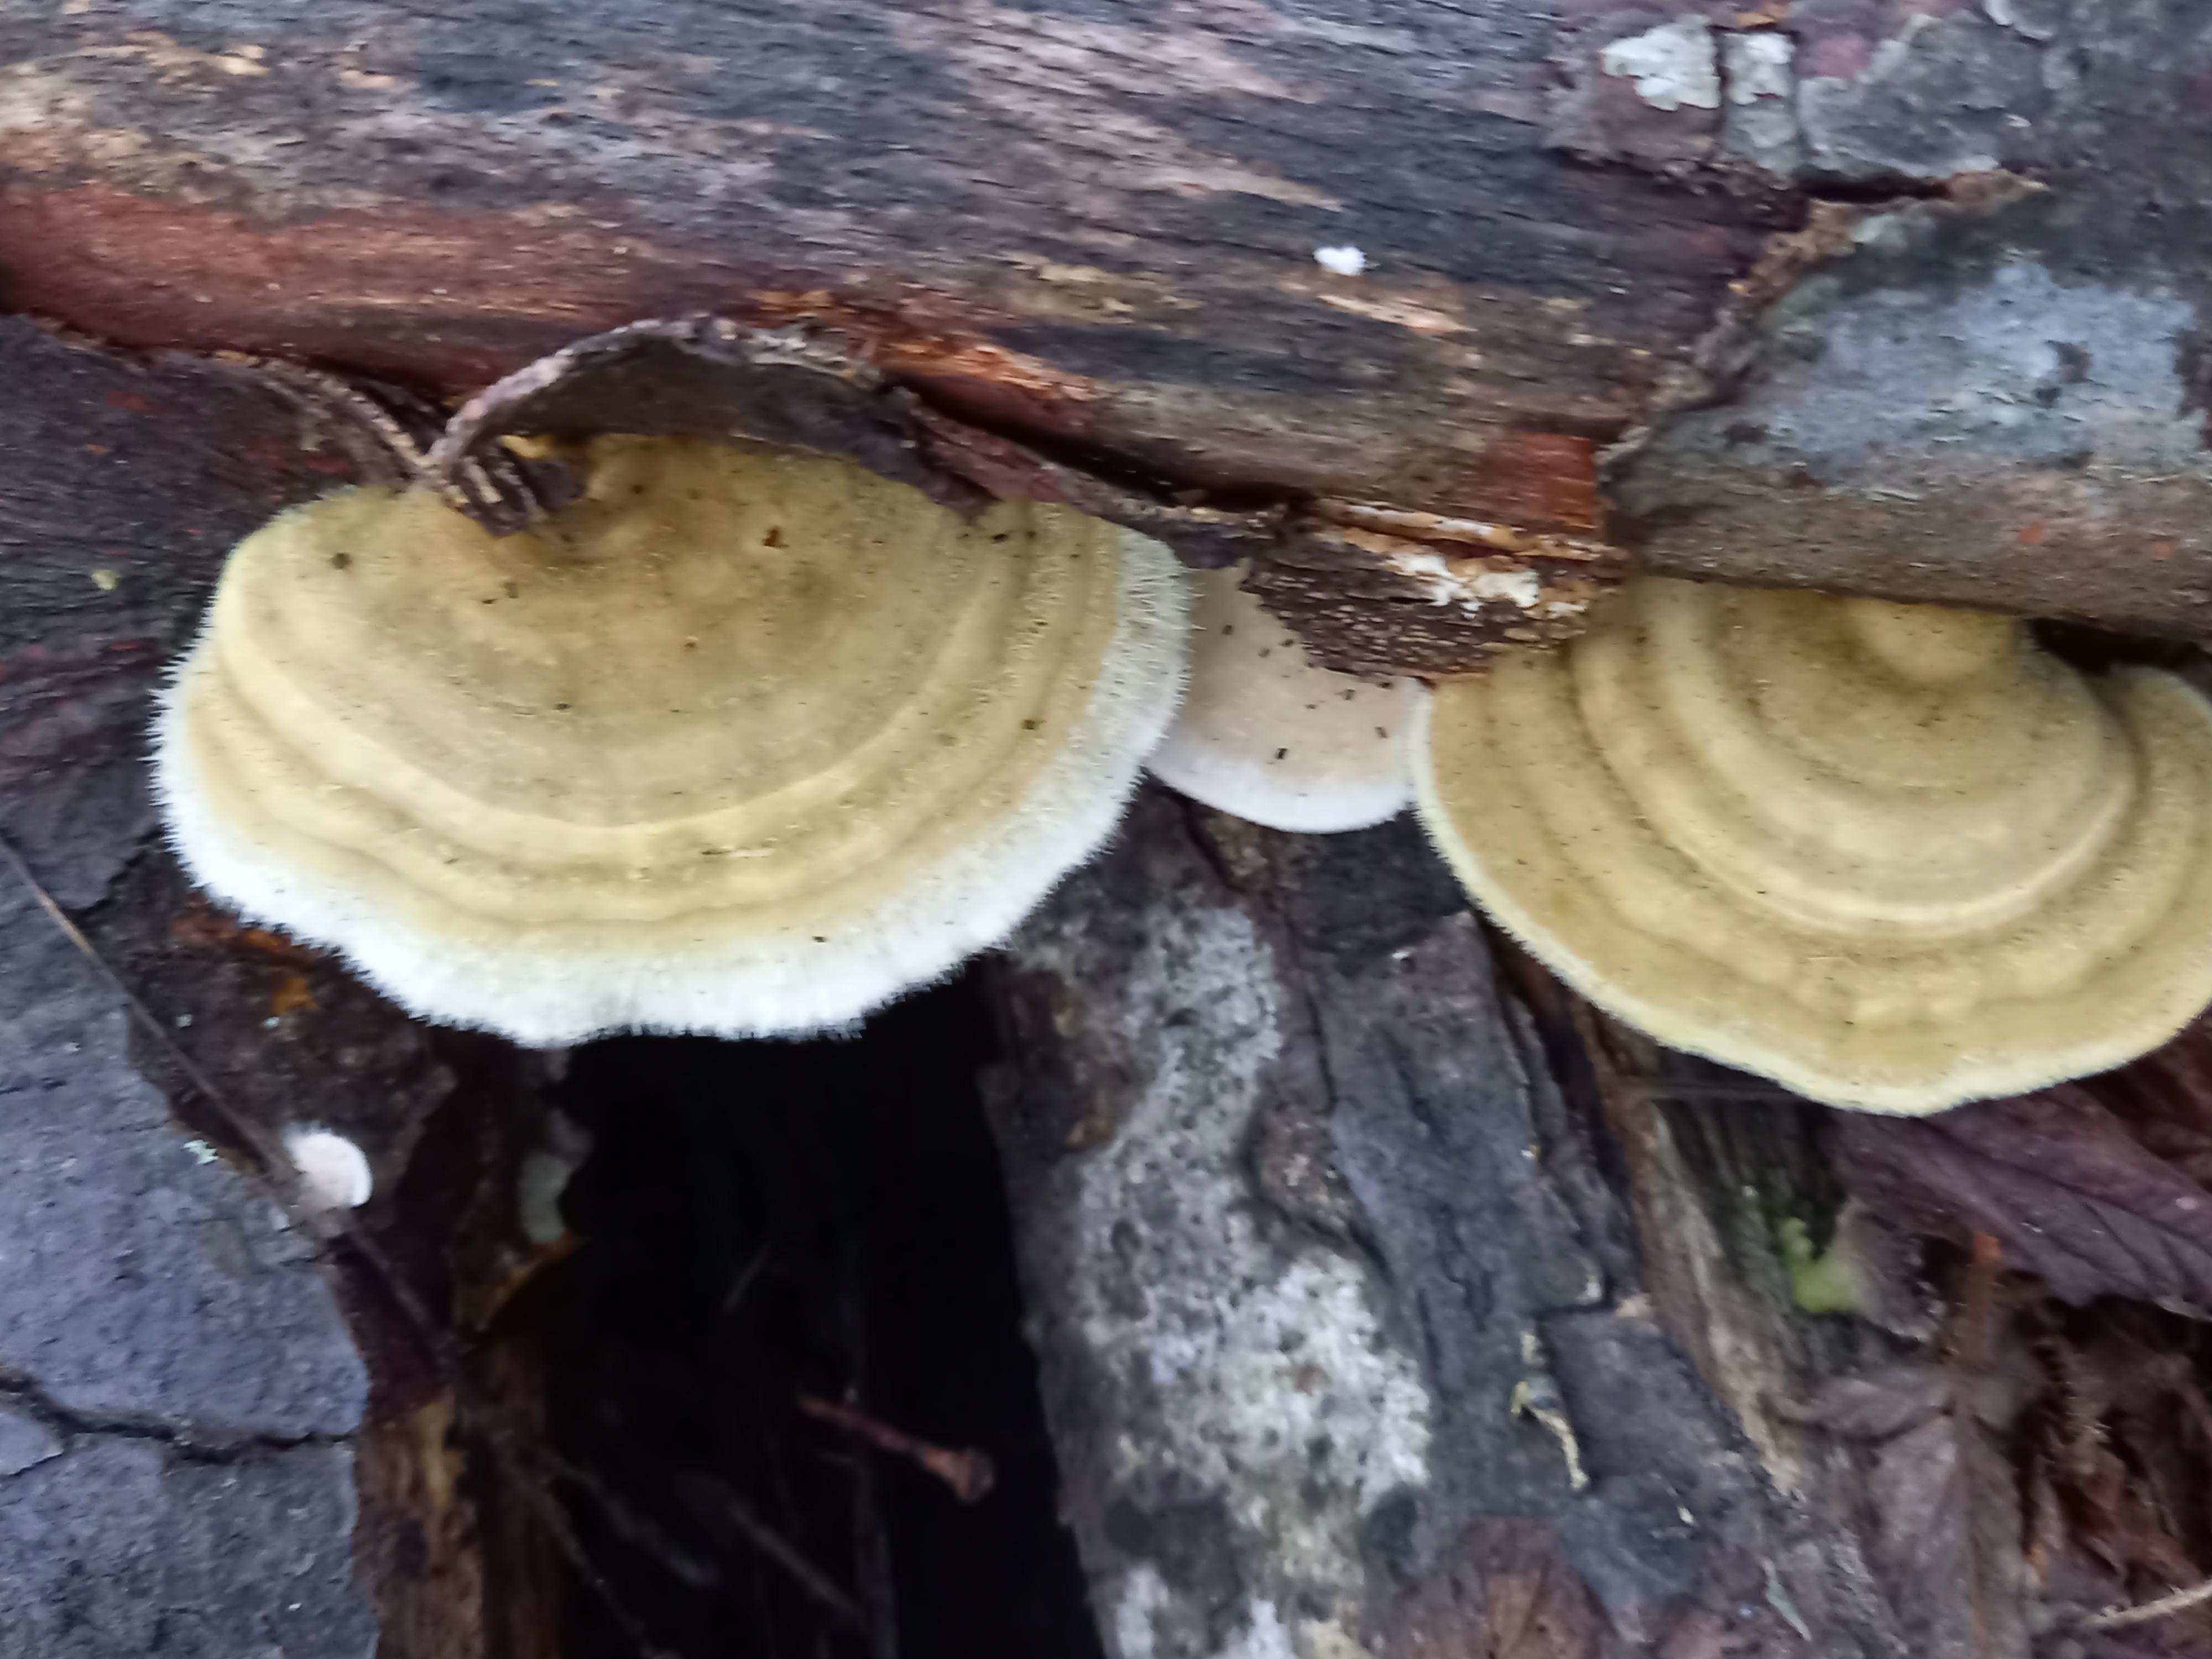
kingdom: Fungi
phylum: Basidiomycota
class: Agaricomycetes
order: Polyporales
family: Polyporaceae
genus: Trametes
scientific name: Trametes hirsuta
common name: håret læderporesvamp
